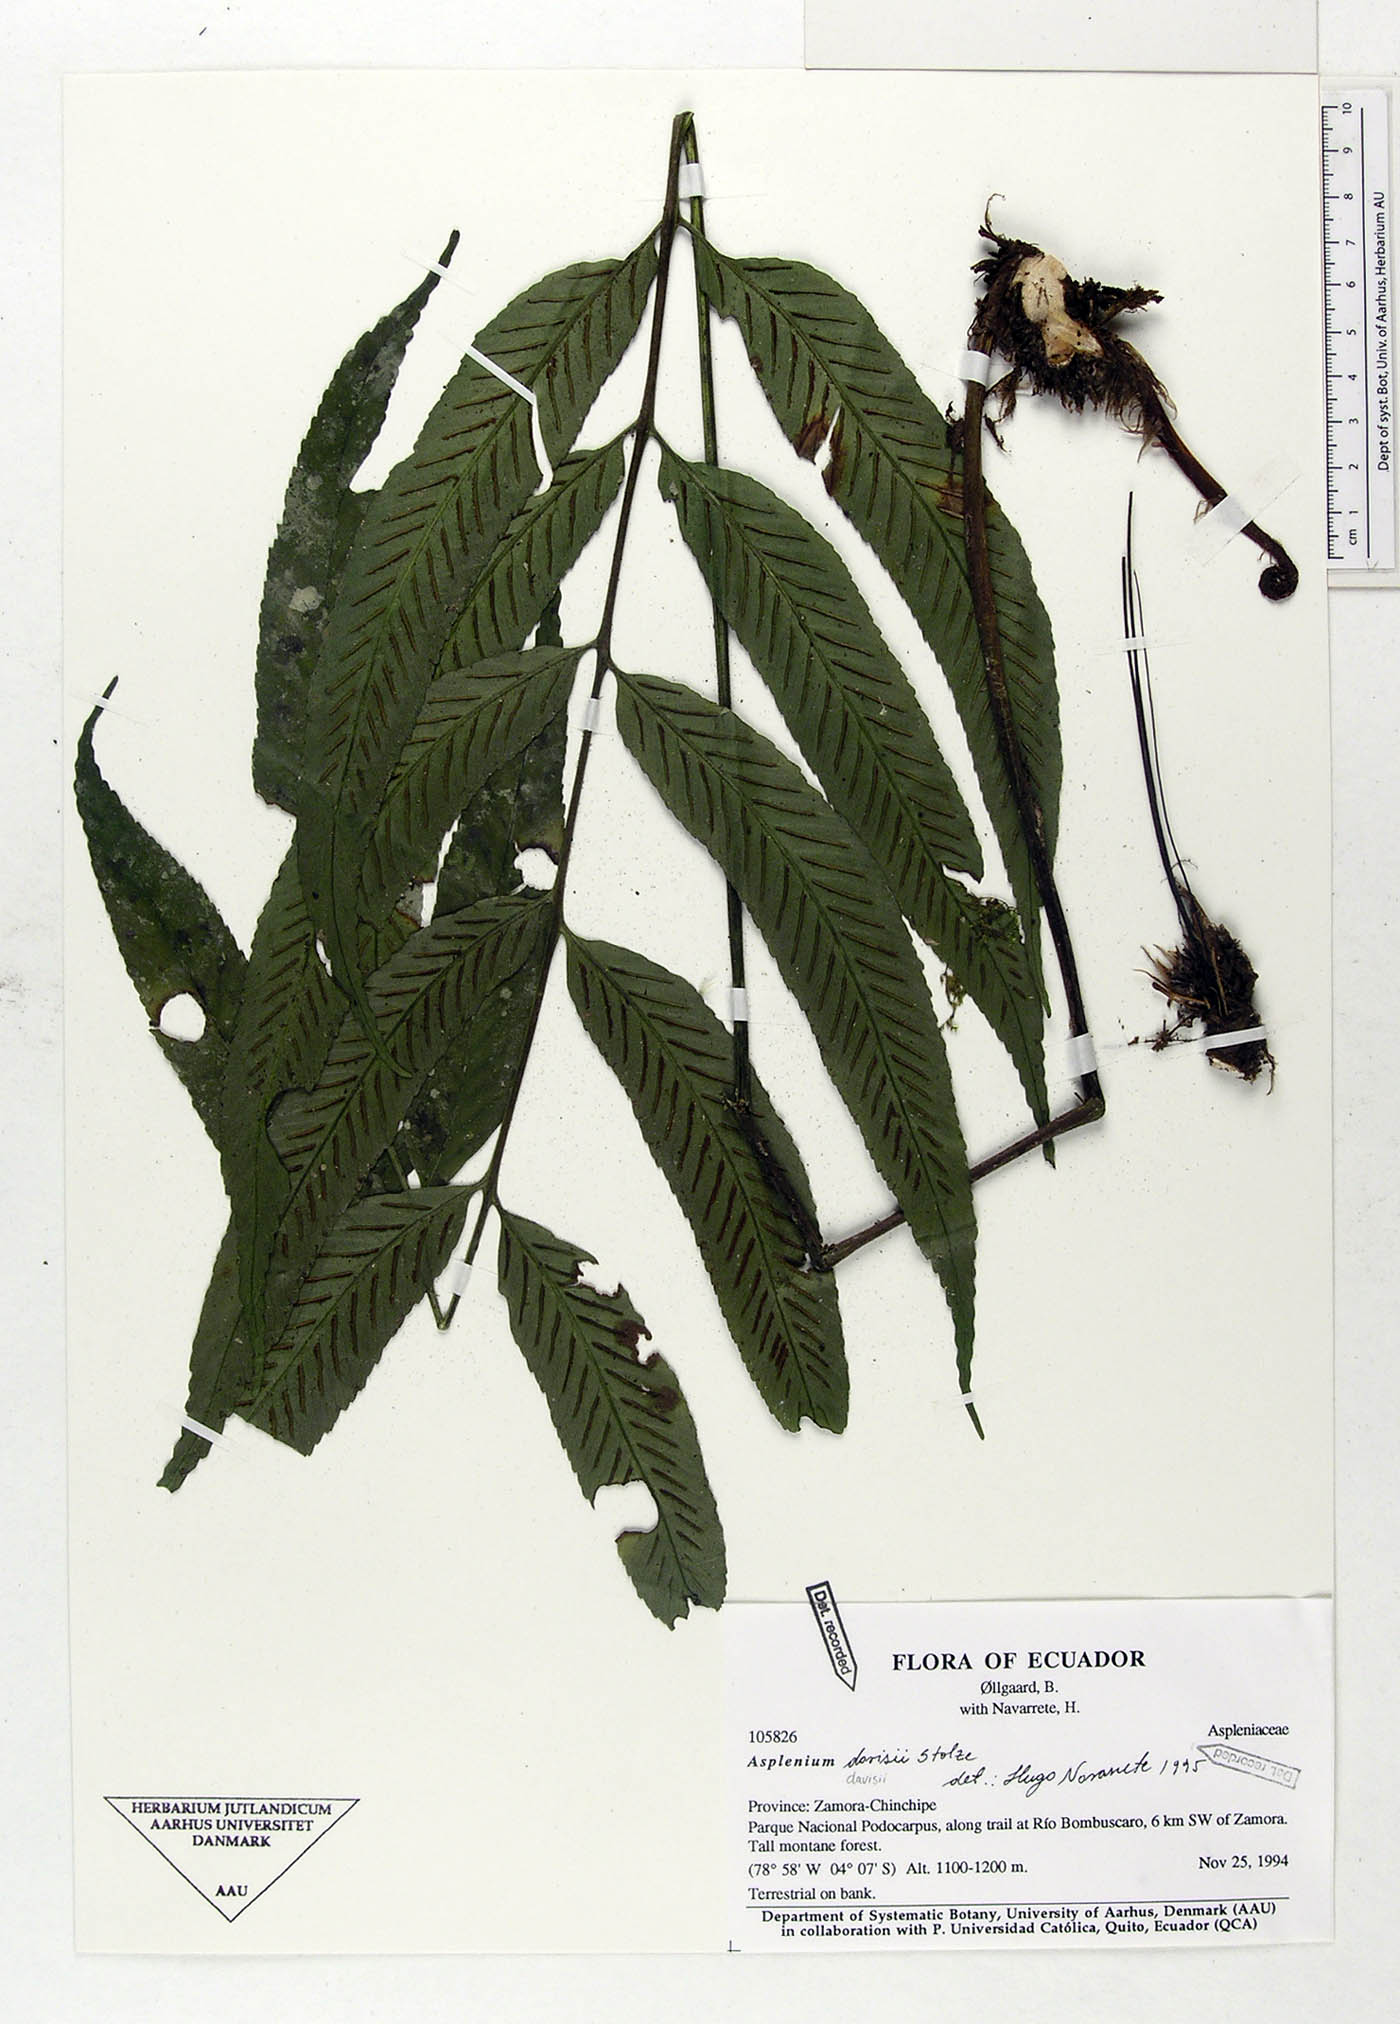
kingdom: Plantae
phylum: Tracheophyta
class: Polypodiopsida
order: Polypodiales
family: Aspleniaceae
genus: Asplenium
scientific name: Asplenium davisii
